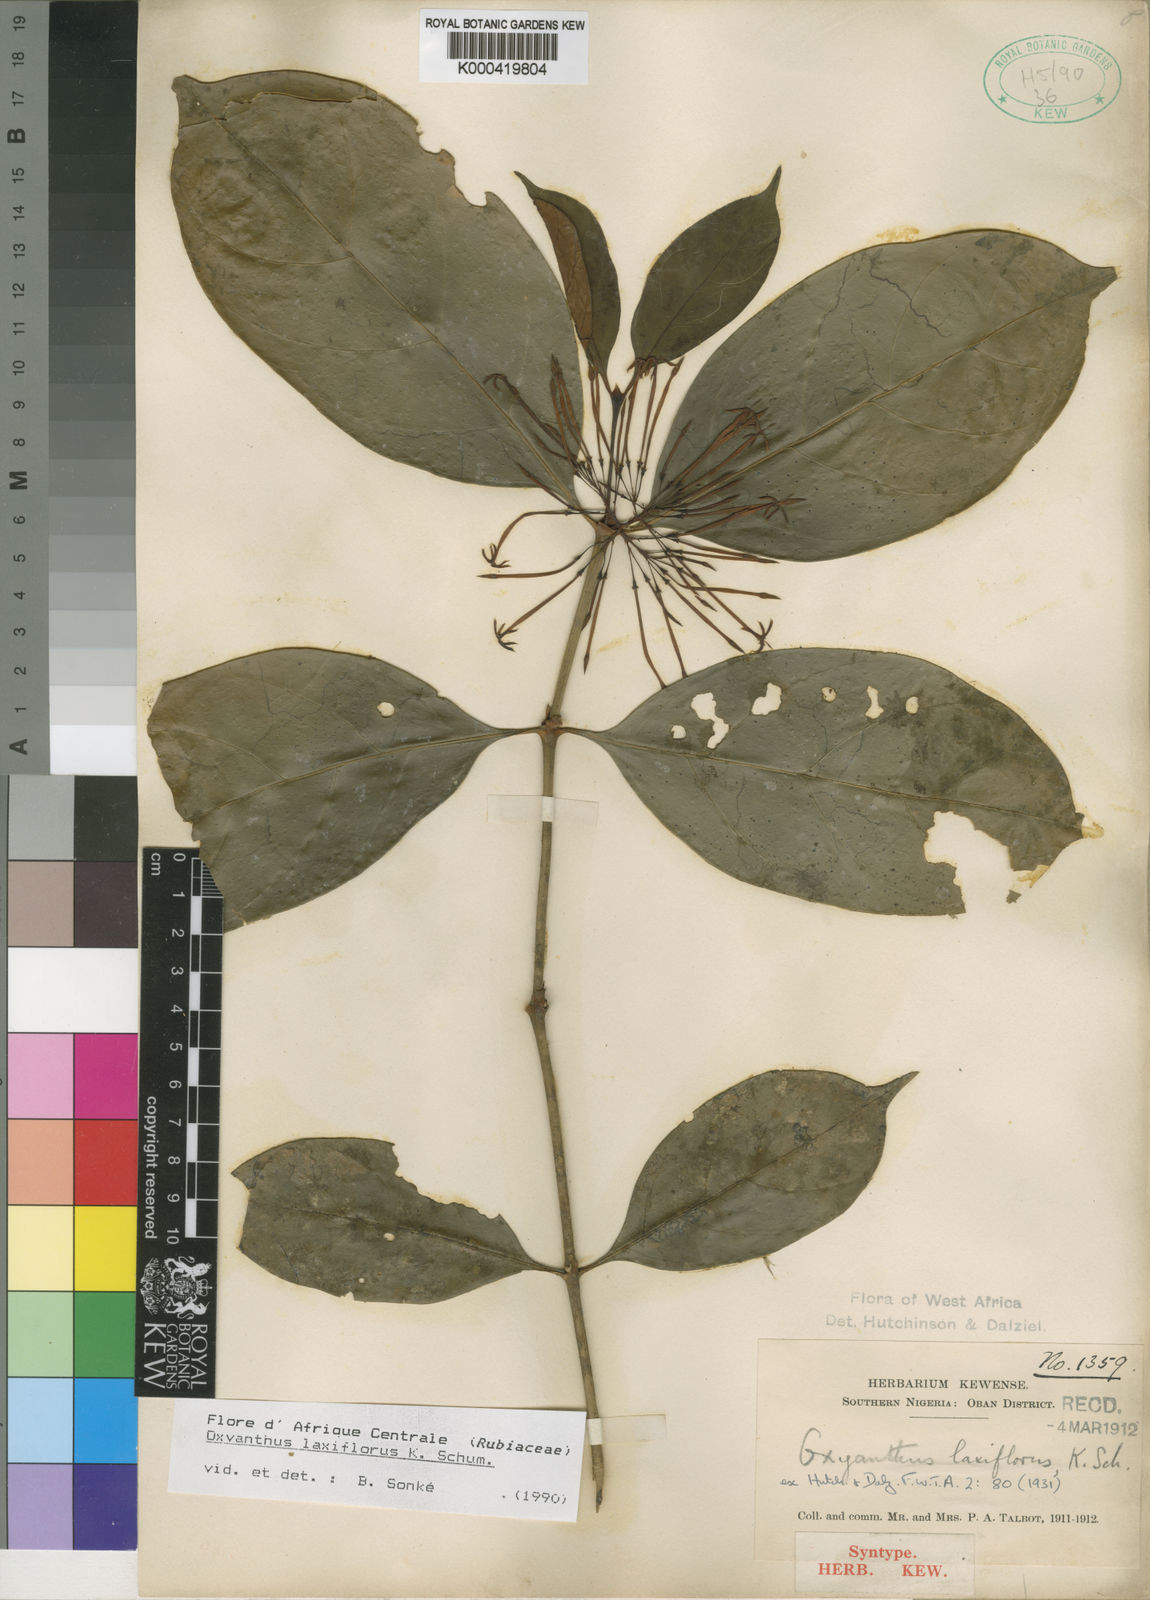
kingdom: Plantae
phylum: Tracheophyta
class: Magnoliopsida
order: Gentianales
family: Rubiaceae
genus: Oxyanthus
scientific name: Oxyanthus laxiflorus
